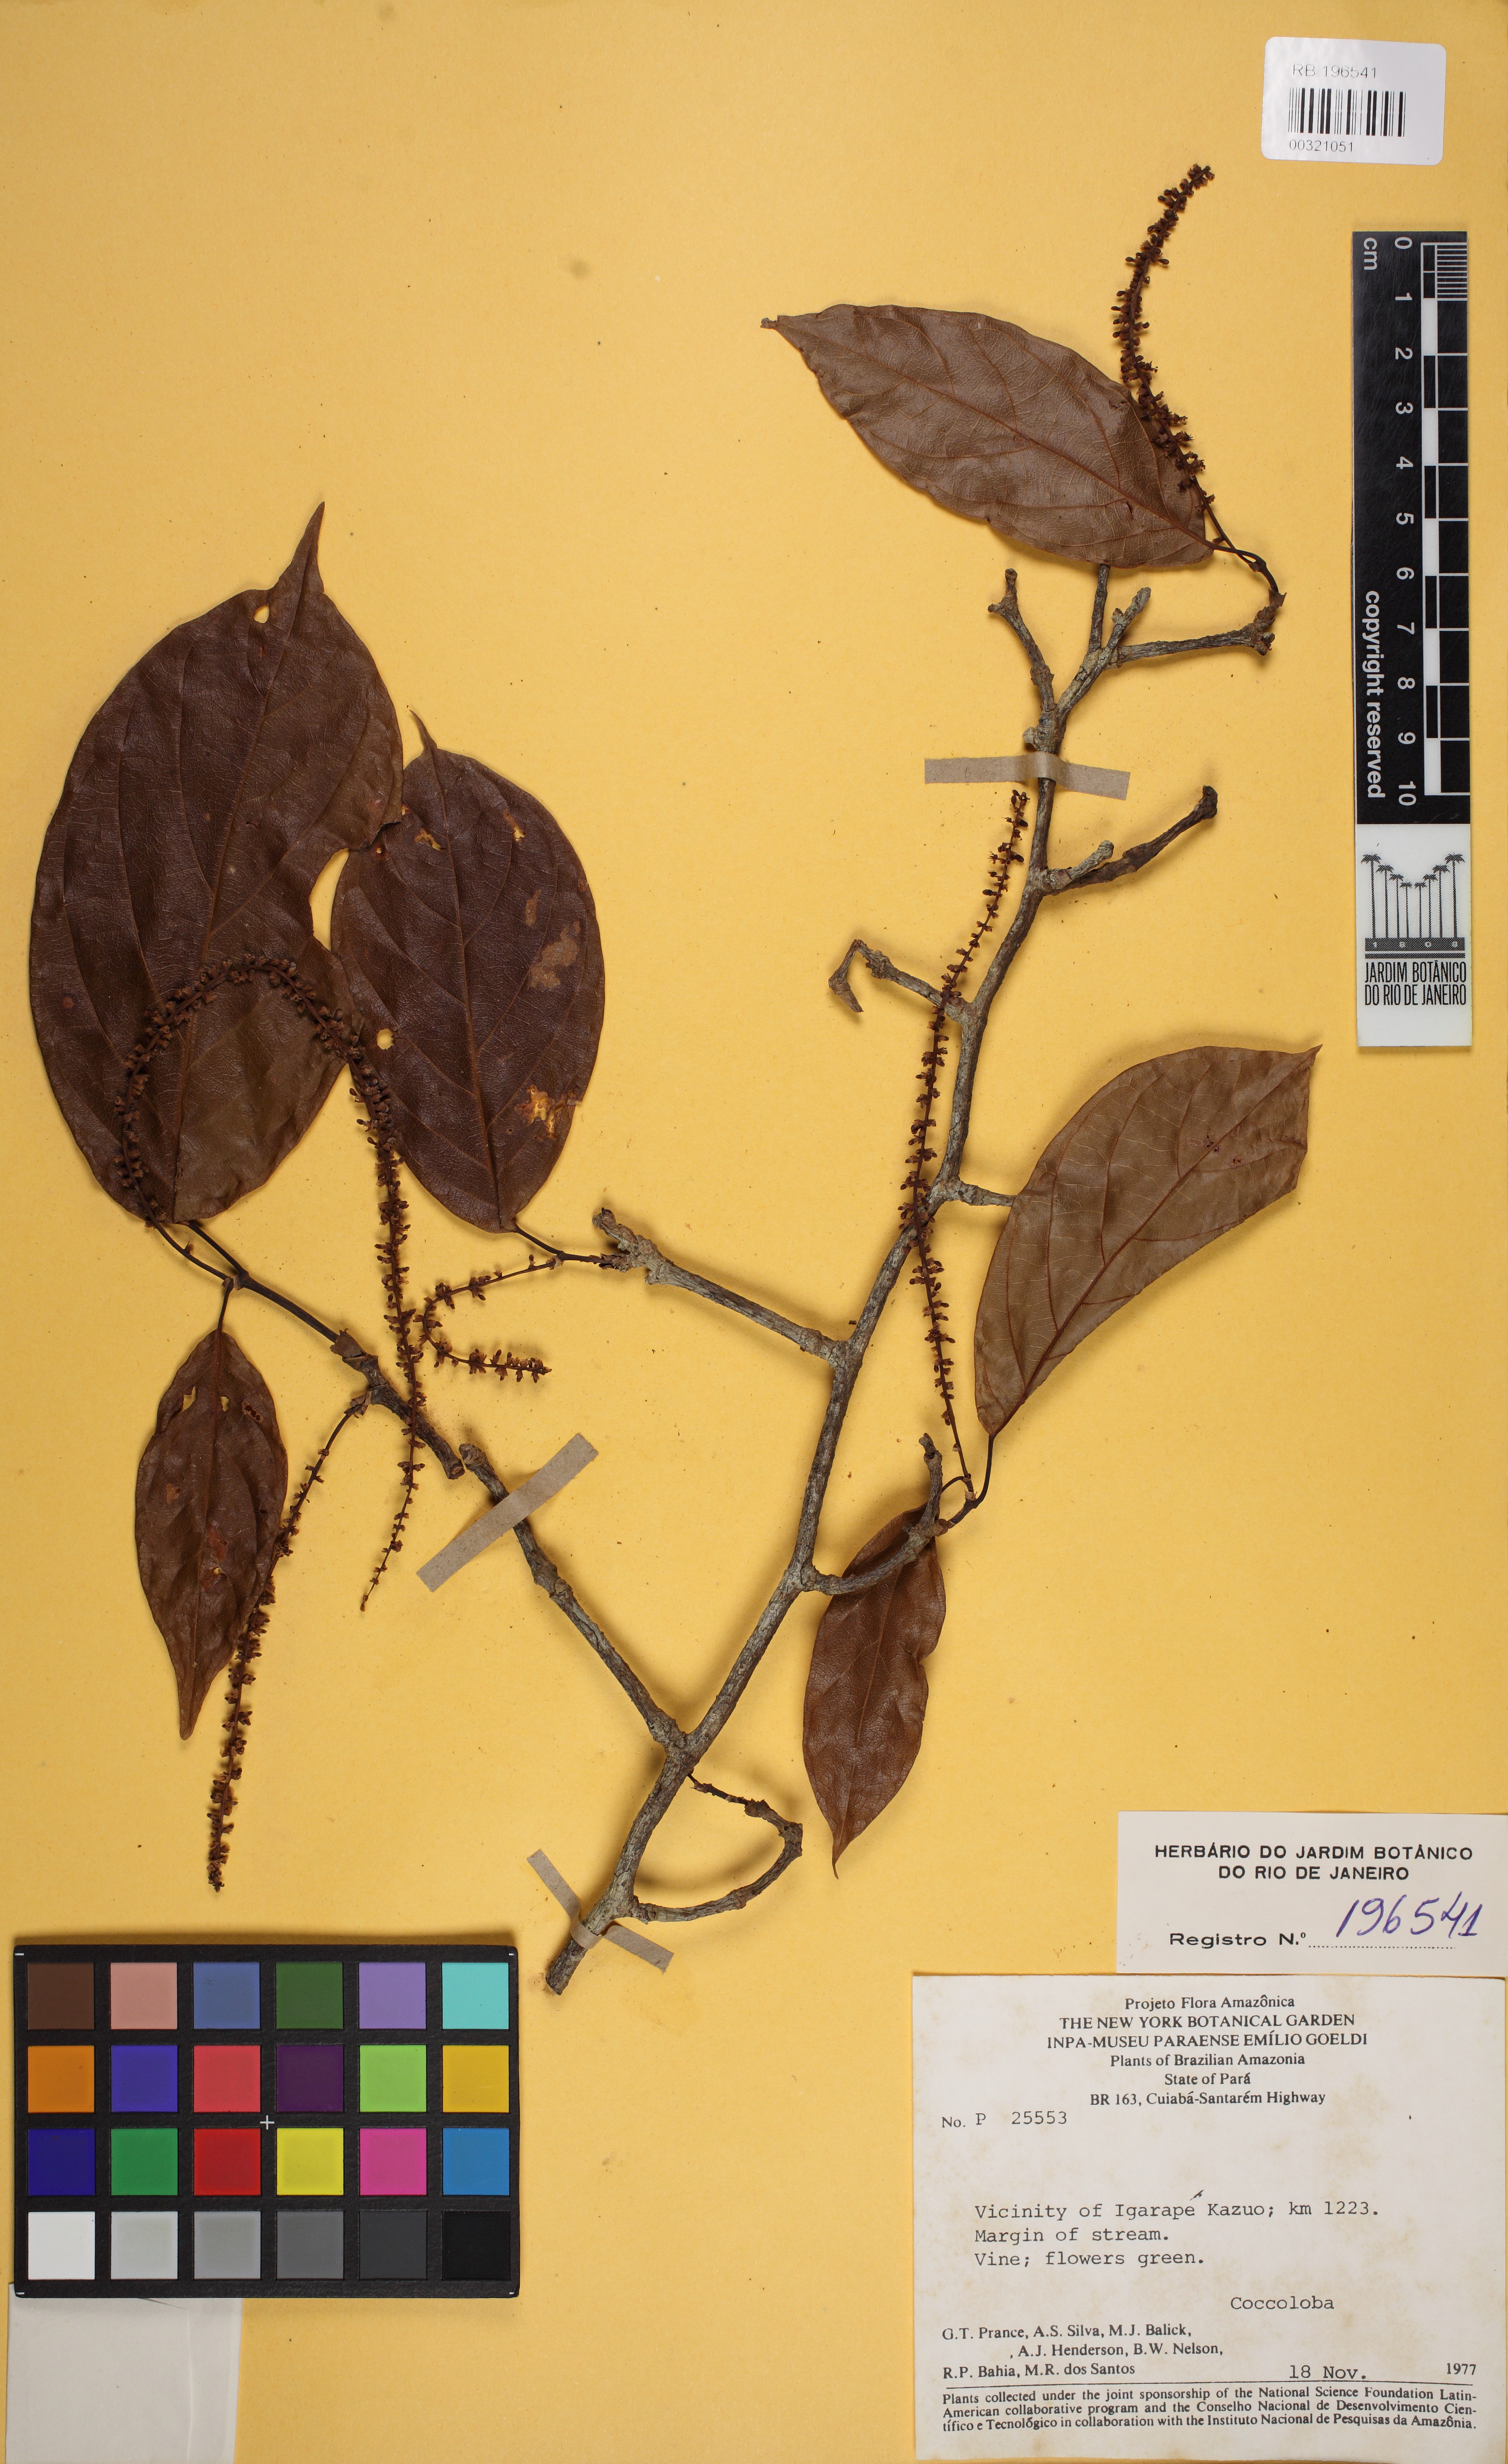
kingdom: Plantae
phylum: Tracheophyta
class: Magnoliopsida
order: Caryophyllales
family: Polygonaceae
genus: Coccoloba
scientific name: Coccoloba
